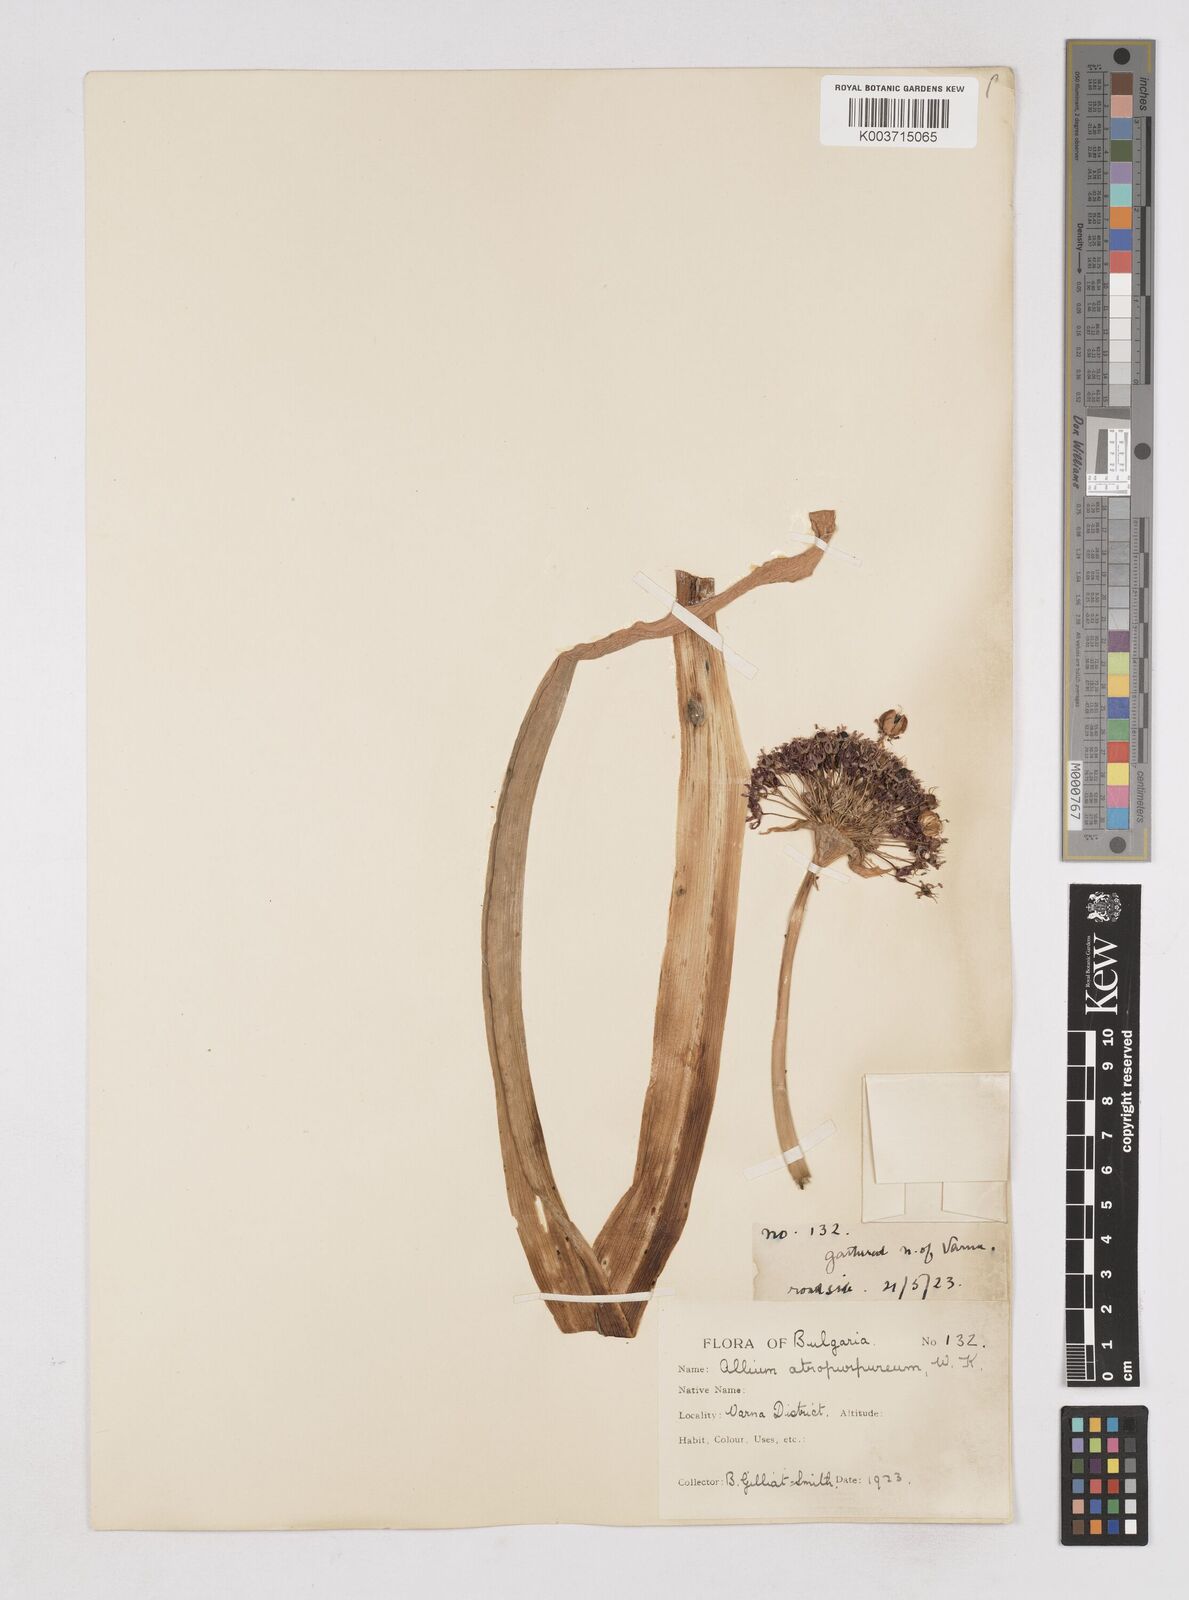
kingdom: Plantae
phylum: Tracheophyta
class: Liliopsida
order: Asparagales
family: Amaryllidaceae
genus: Allium
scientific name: Allium atropurpureum
